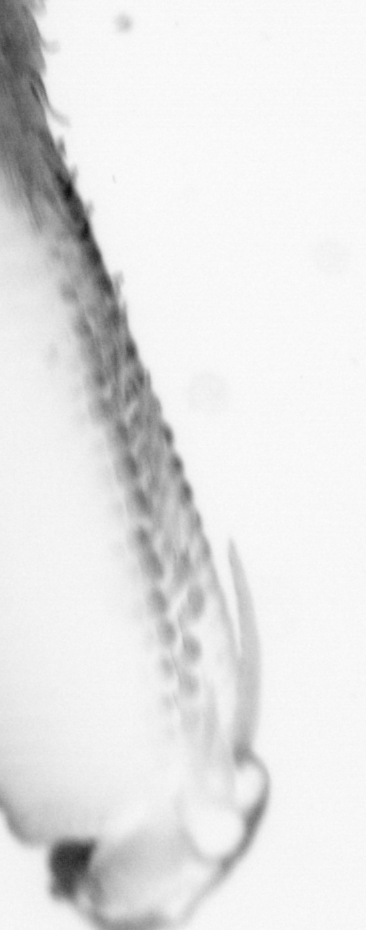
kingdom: Animalia
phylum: Chordata
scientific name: Chordata
